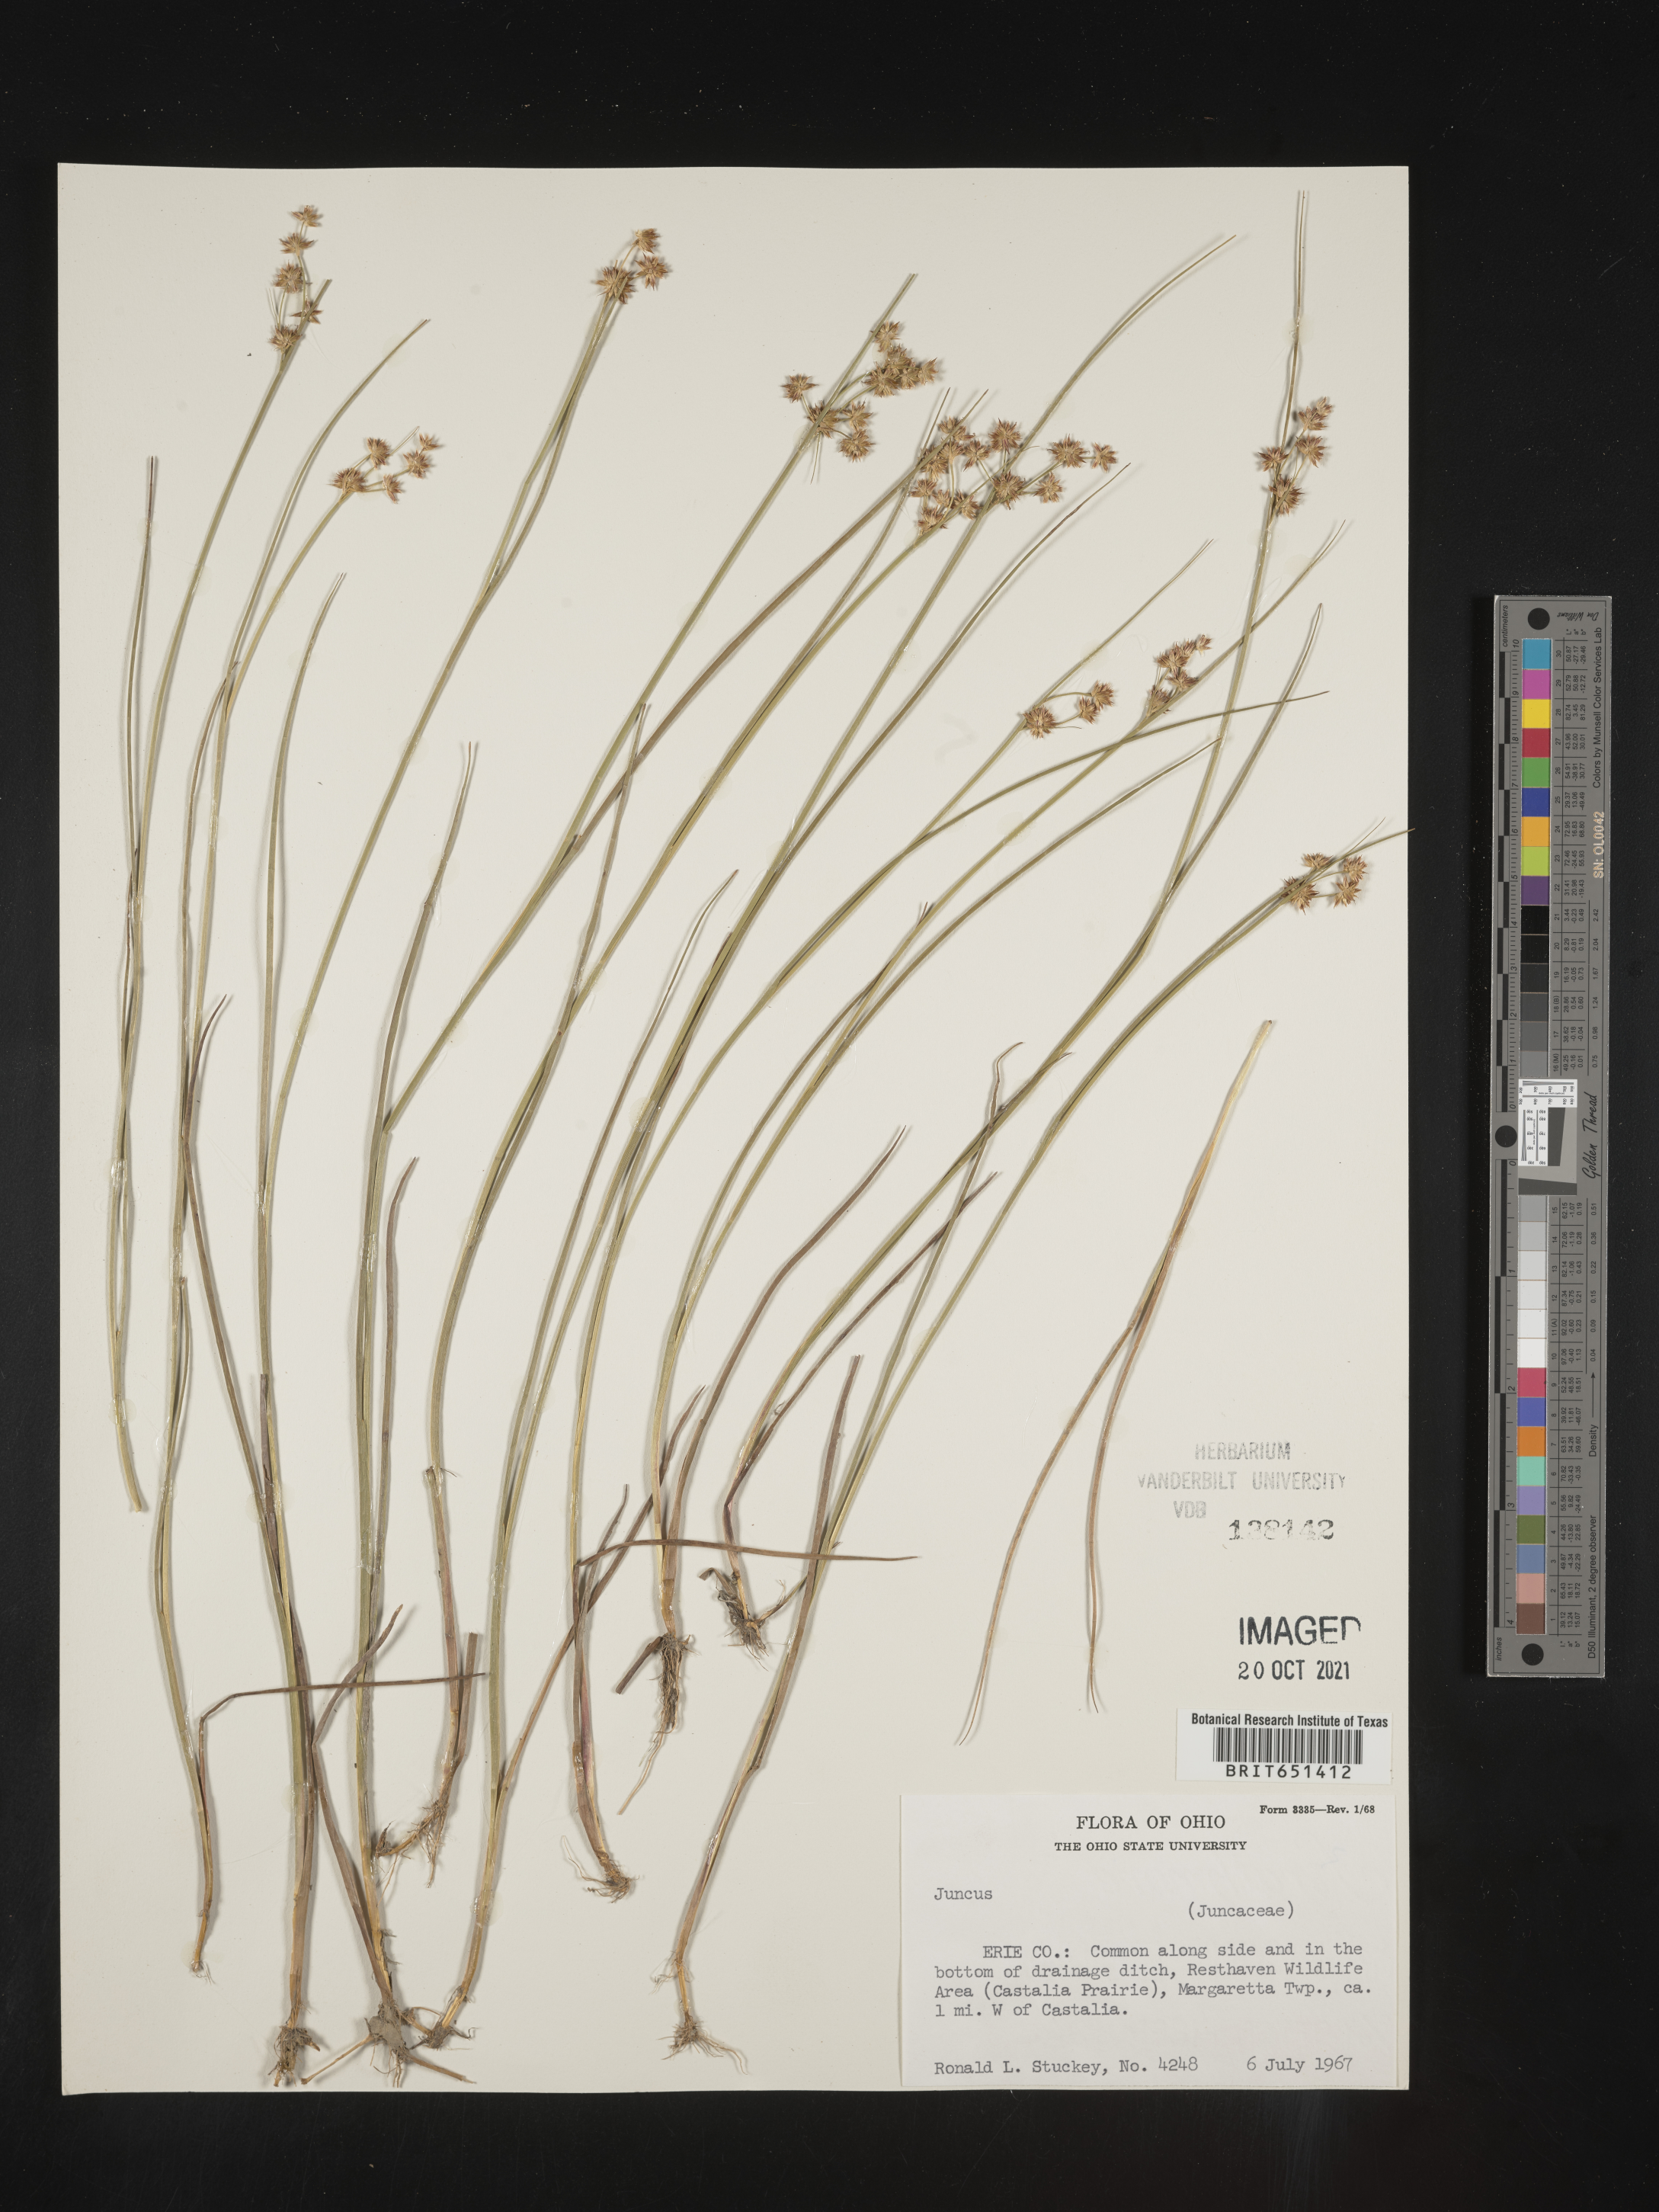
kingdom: Plantae
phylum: Tracheophyta
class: Liliopsida
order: Poales
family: Juncaceae
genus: Juncus
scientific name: Juncus
